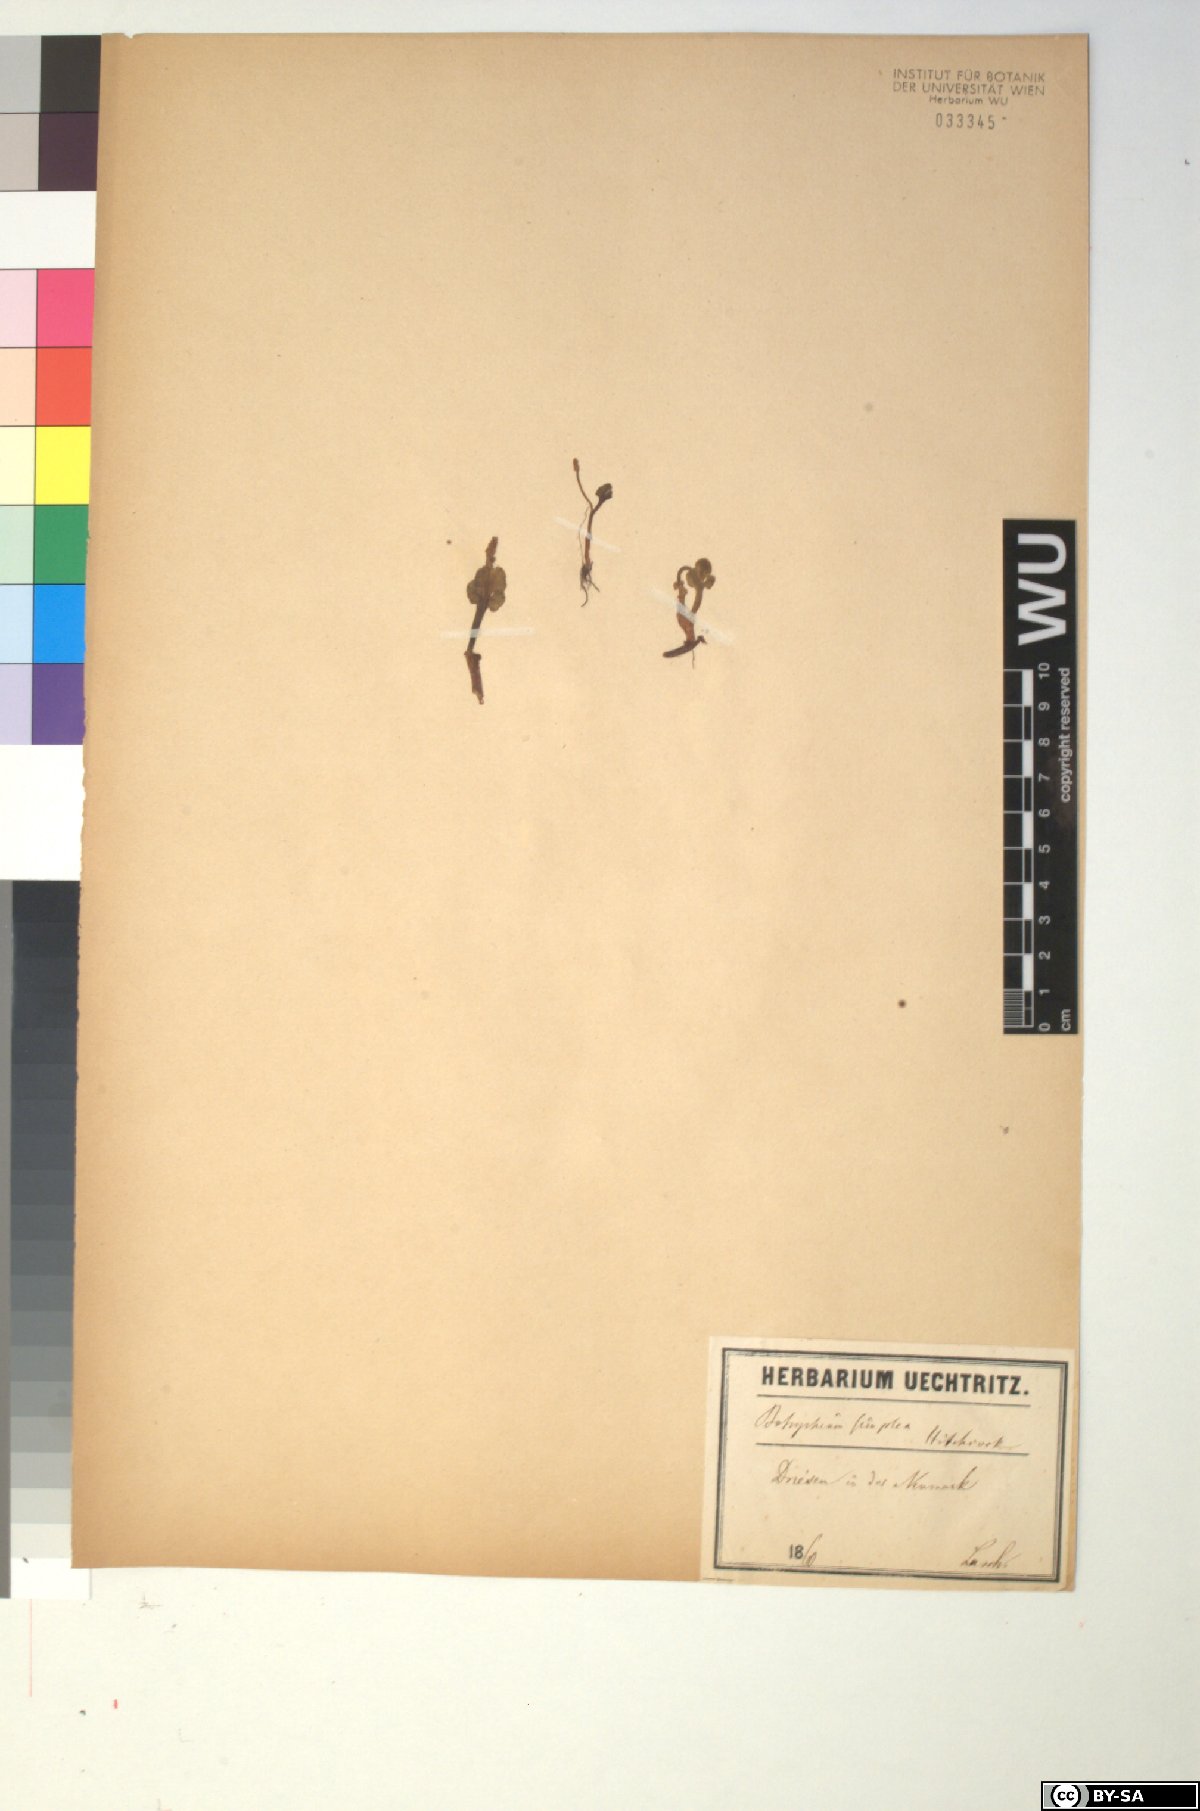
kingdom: Plantae
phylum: Tracheophyta
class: Polypodiopsida
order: Ophioglossales
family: Ophioglossaceae
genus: Botrychium
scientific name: Botrychium simplex
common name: Least moonwort
